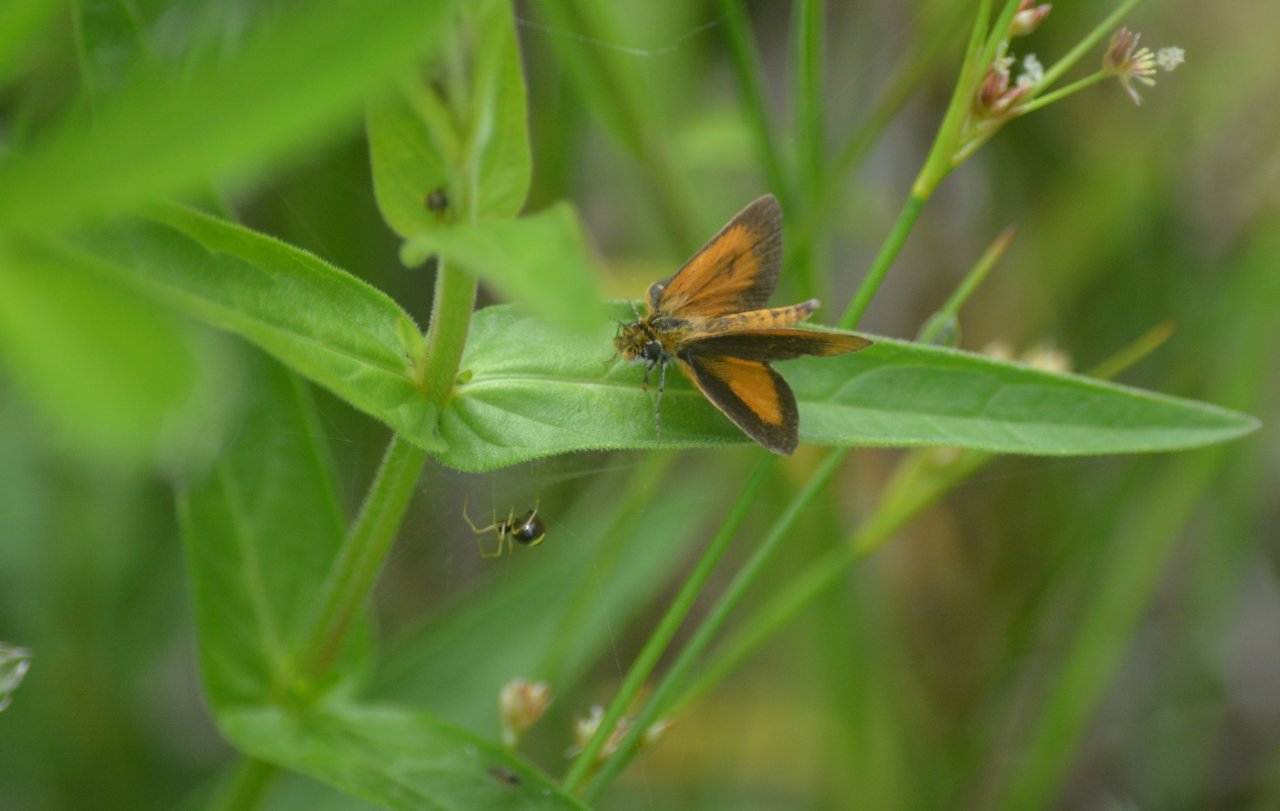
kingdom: Animalia
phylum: Arthropoda
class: Insecta
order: Lepidoptera
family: Hesperiidae
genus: Ancyloxypha
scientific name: Ancyloxypha numitor
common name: Least Skipper
